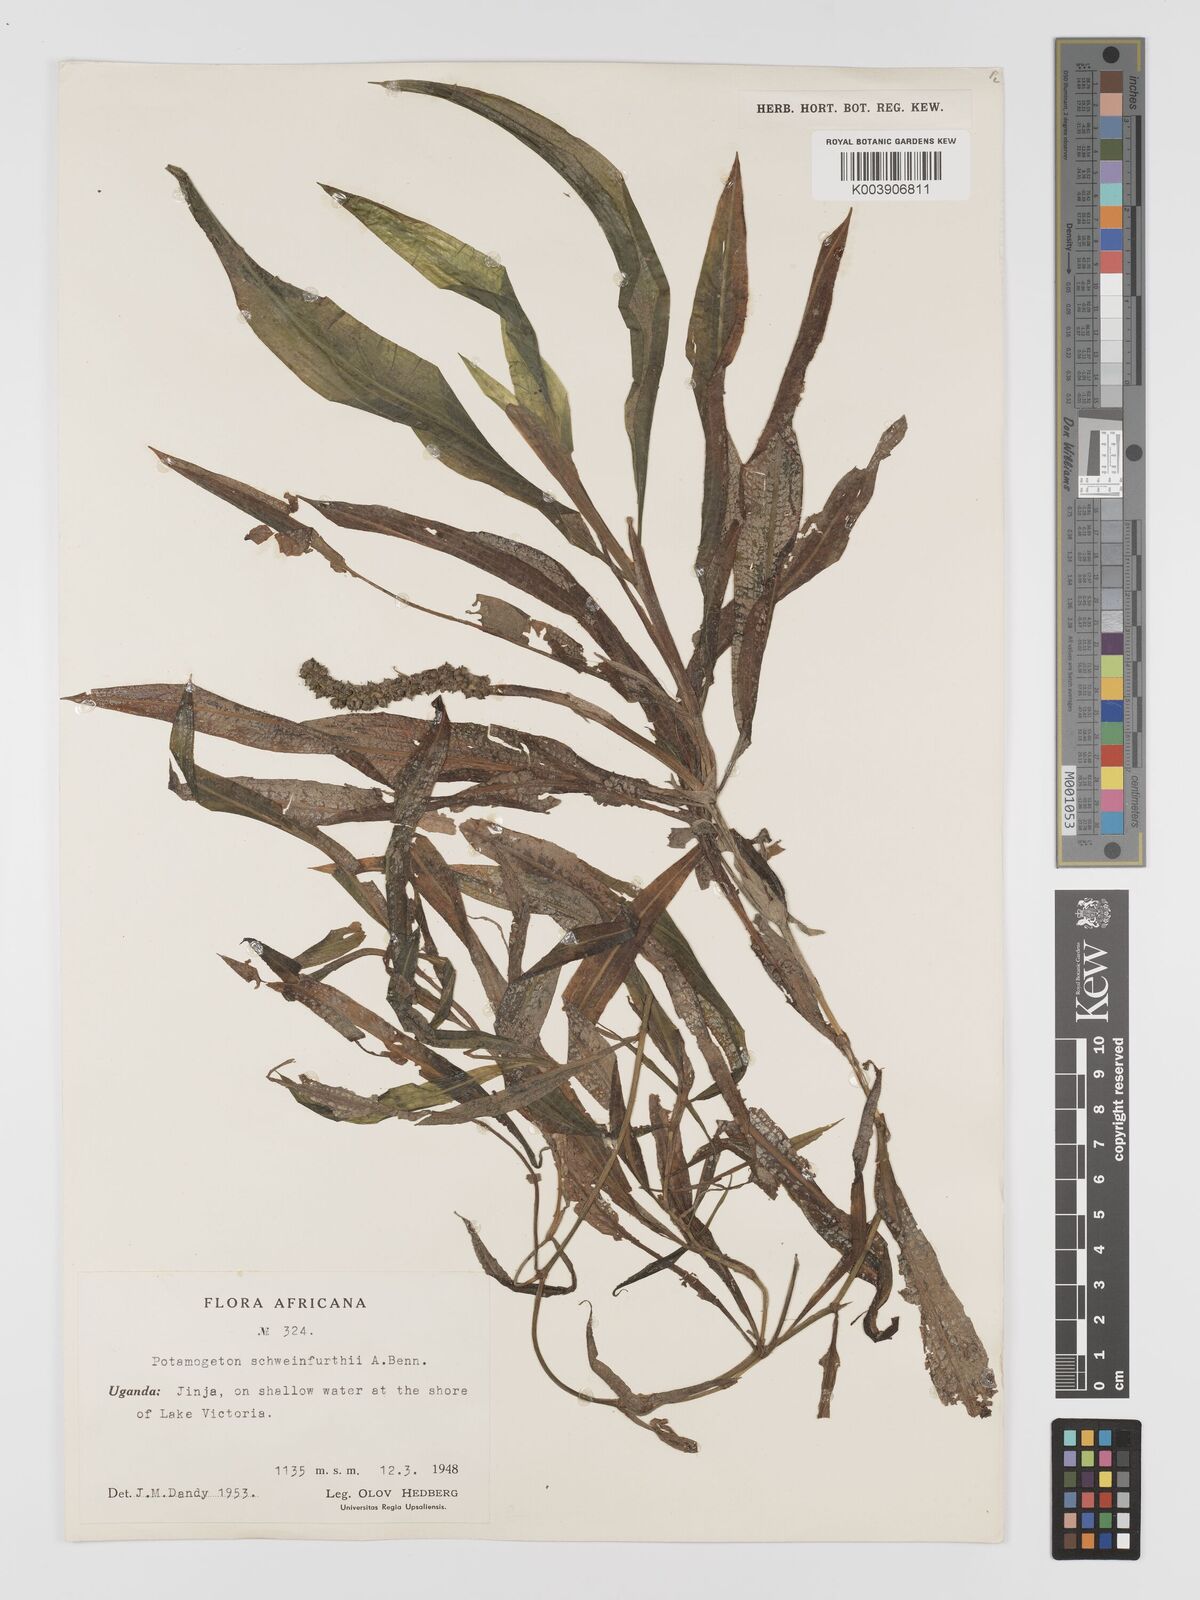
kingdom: Plantae
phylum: Tracheophyta
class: Liliopsida
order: Alismatales
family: Potamogetonaceae
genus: Potamogeton
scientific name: Potamogeton schweinfurthii
